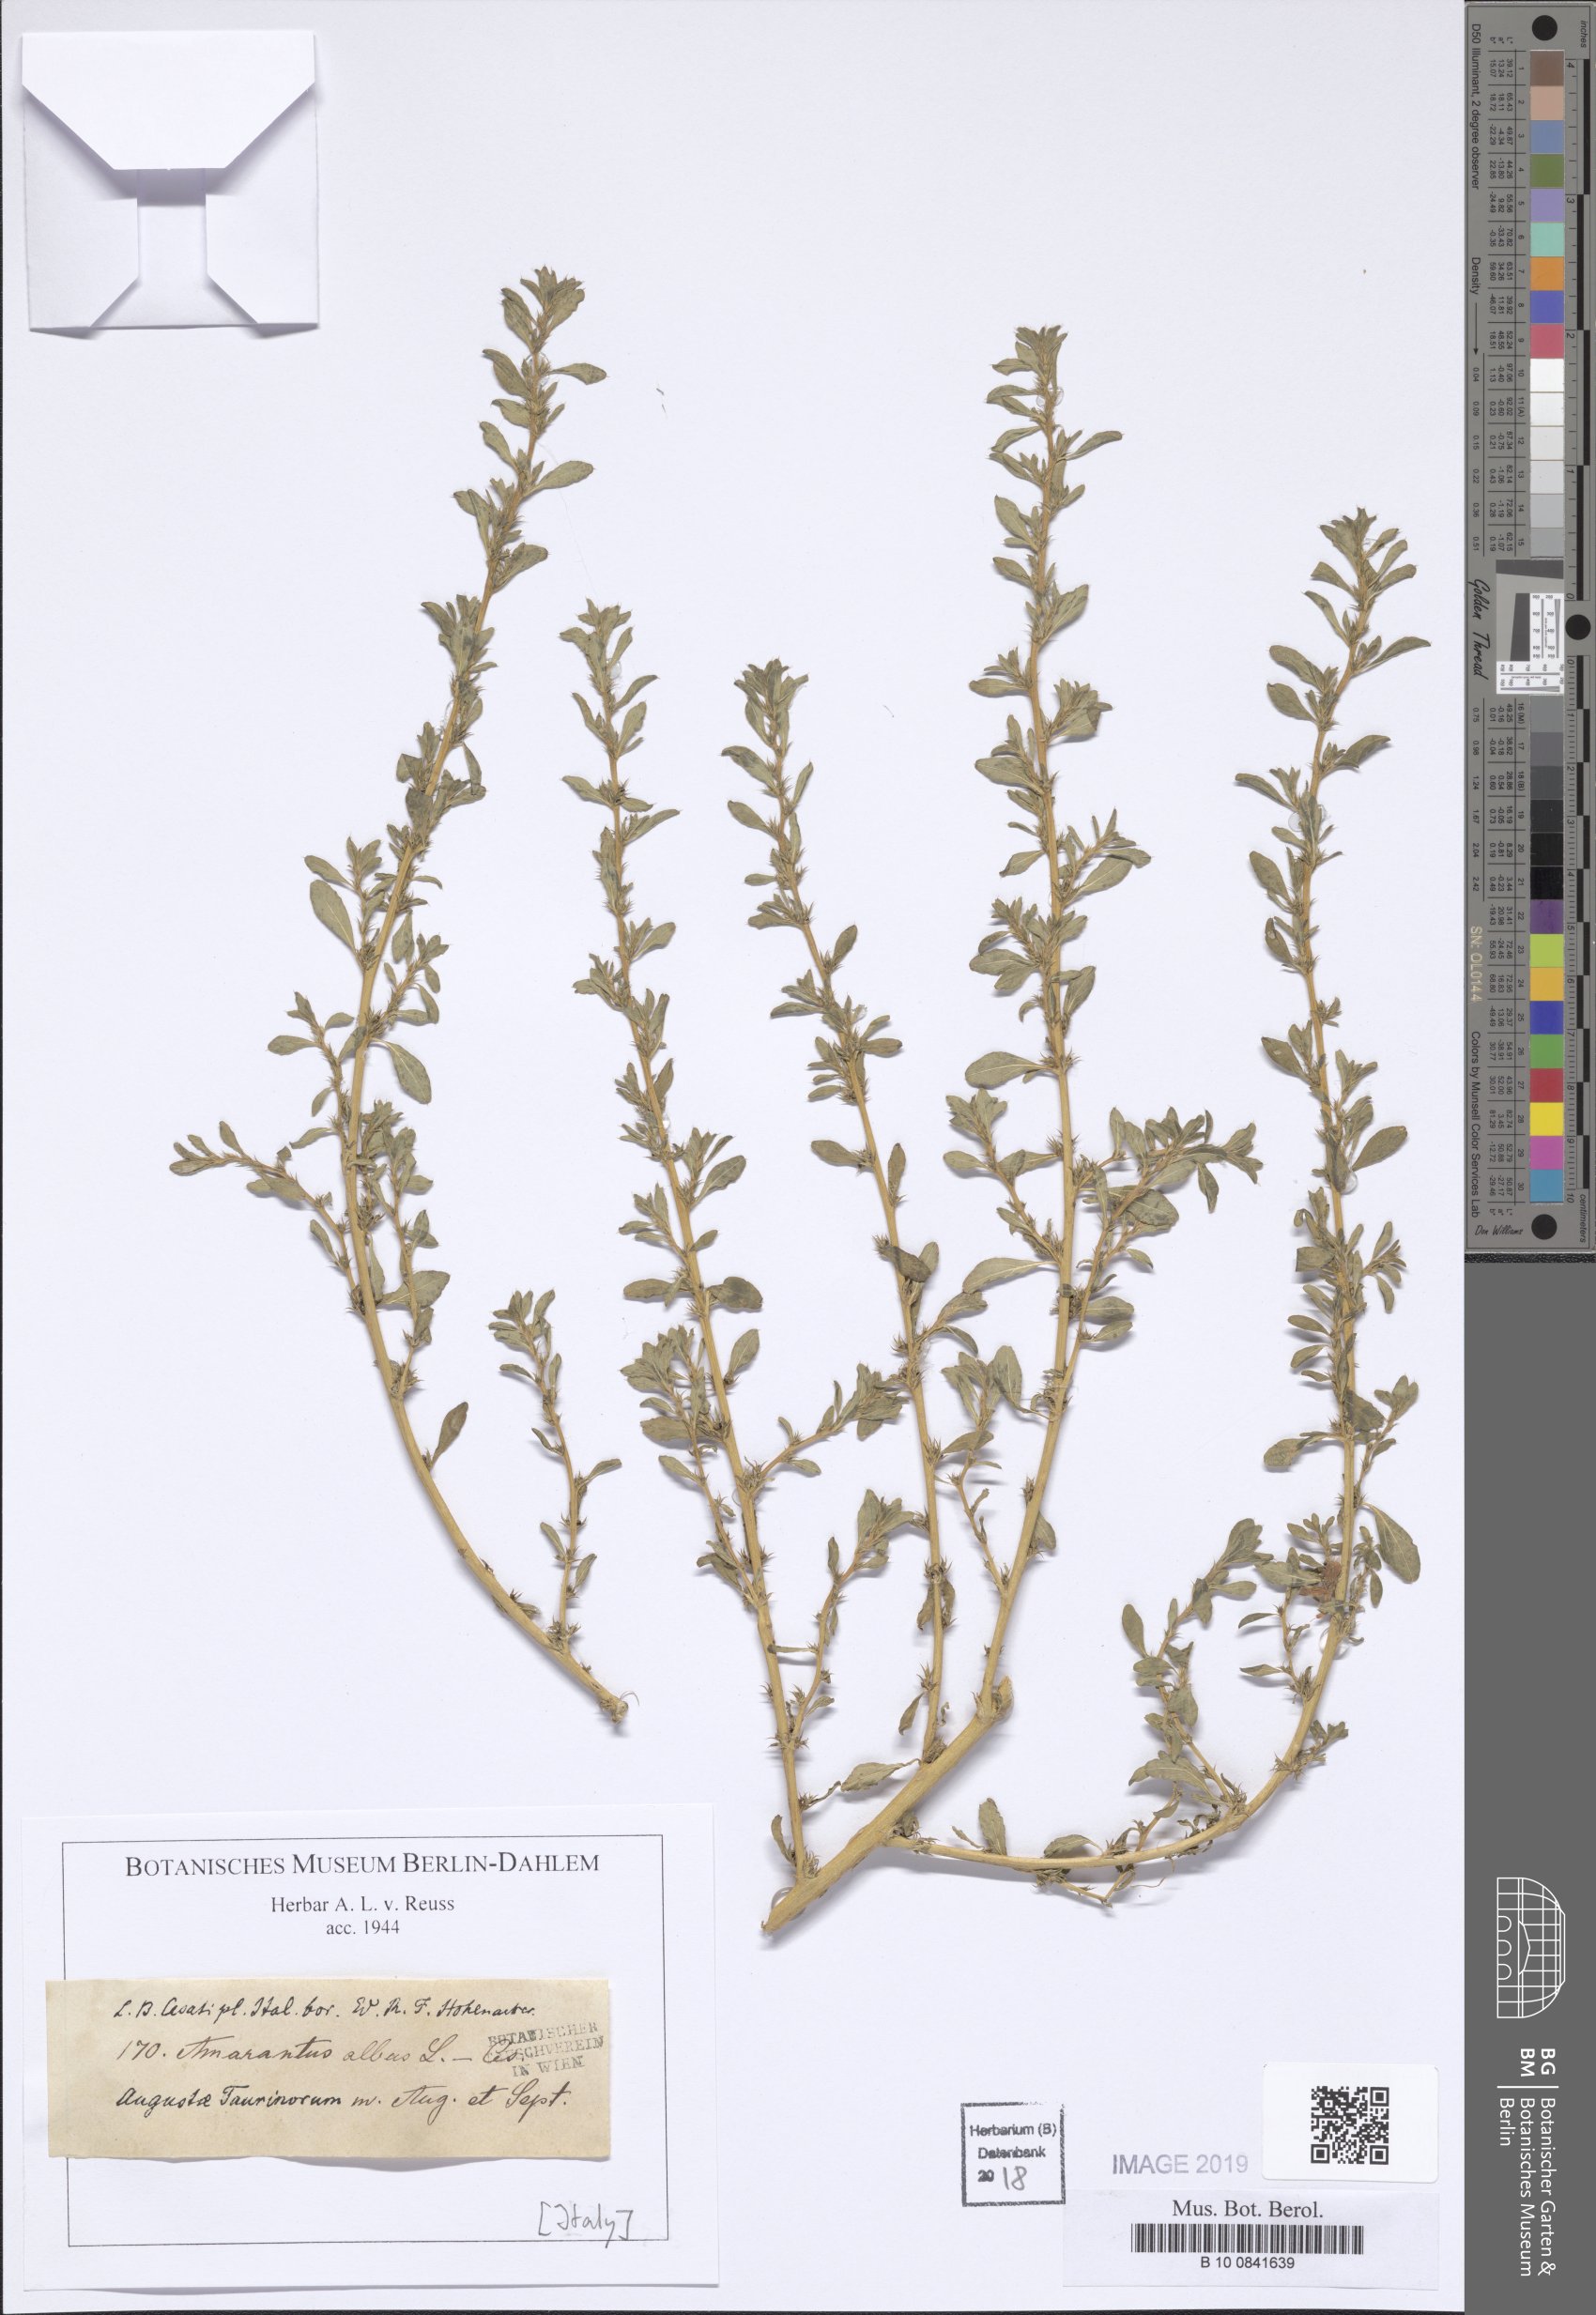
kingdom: Plantae
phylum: Tracheophyta
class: Magnoliopsida
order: Caryophyllales
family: Amaranthaceae
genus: Amaranthus
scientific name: Amaranthus albus
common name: White pigweed
